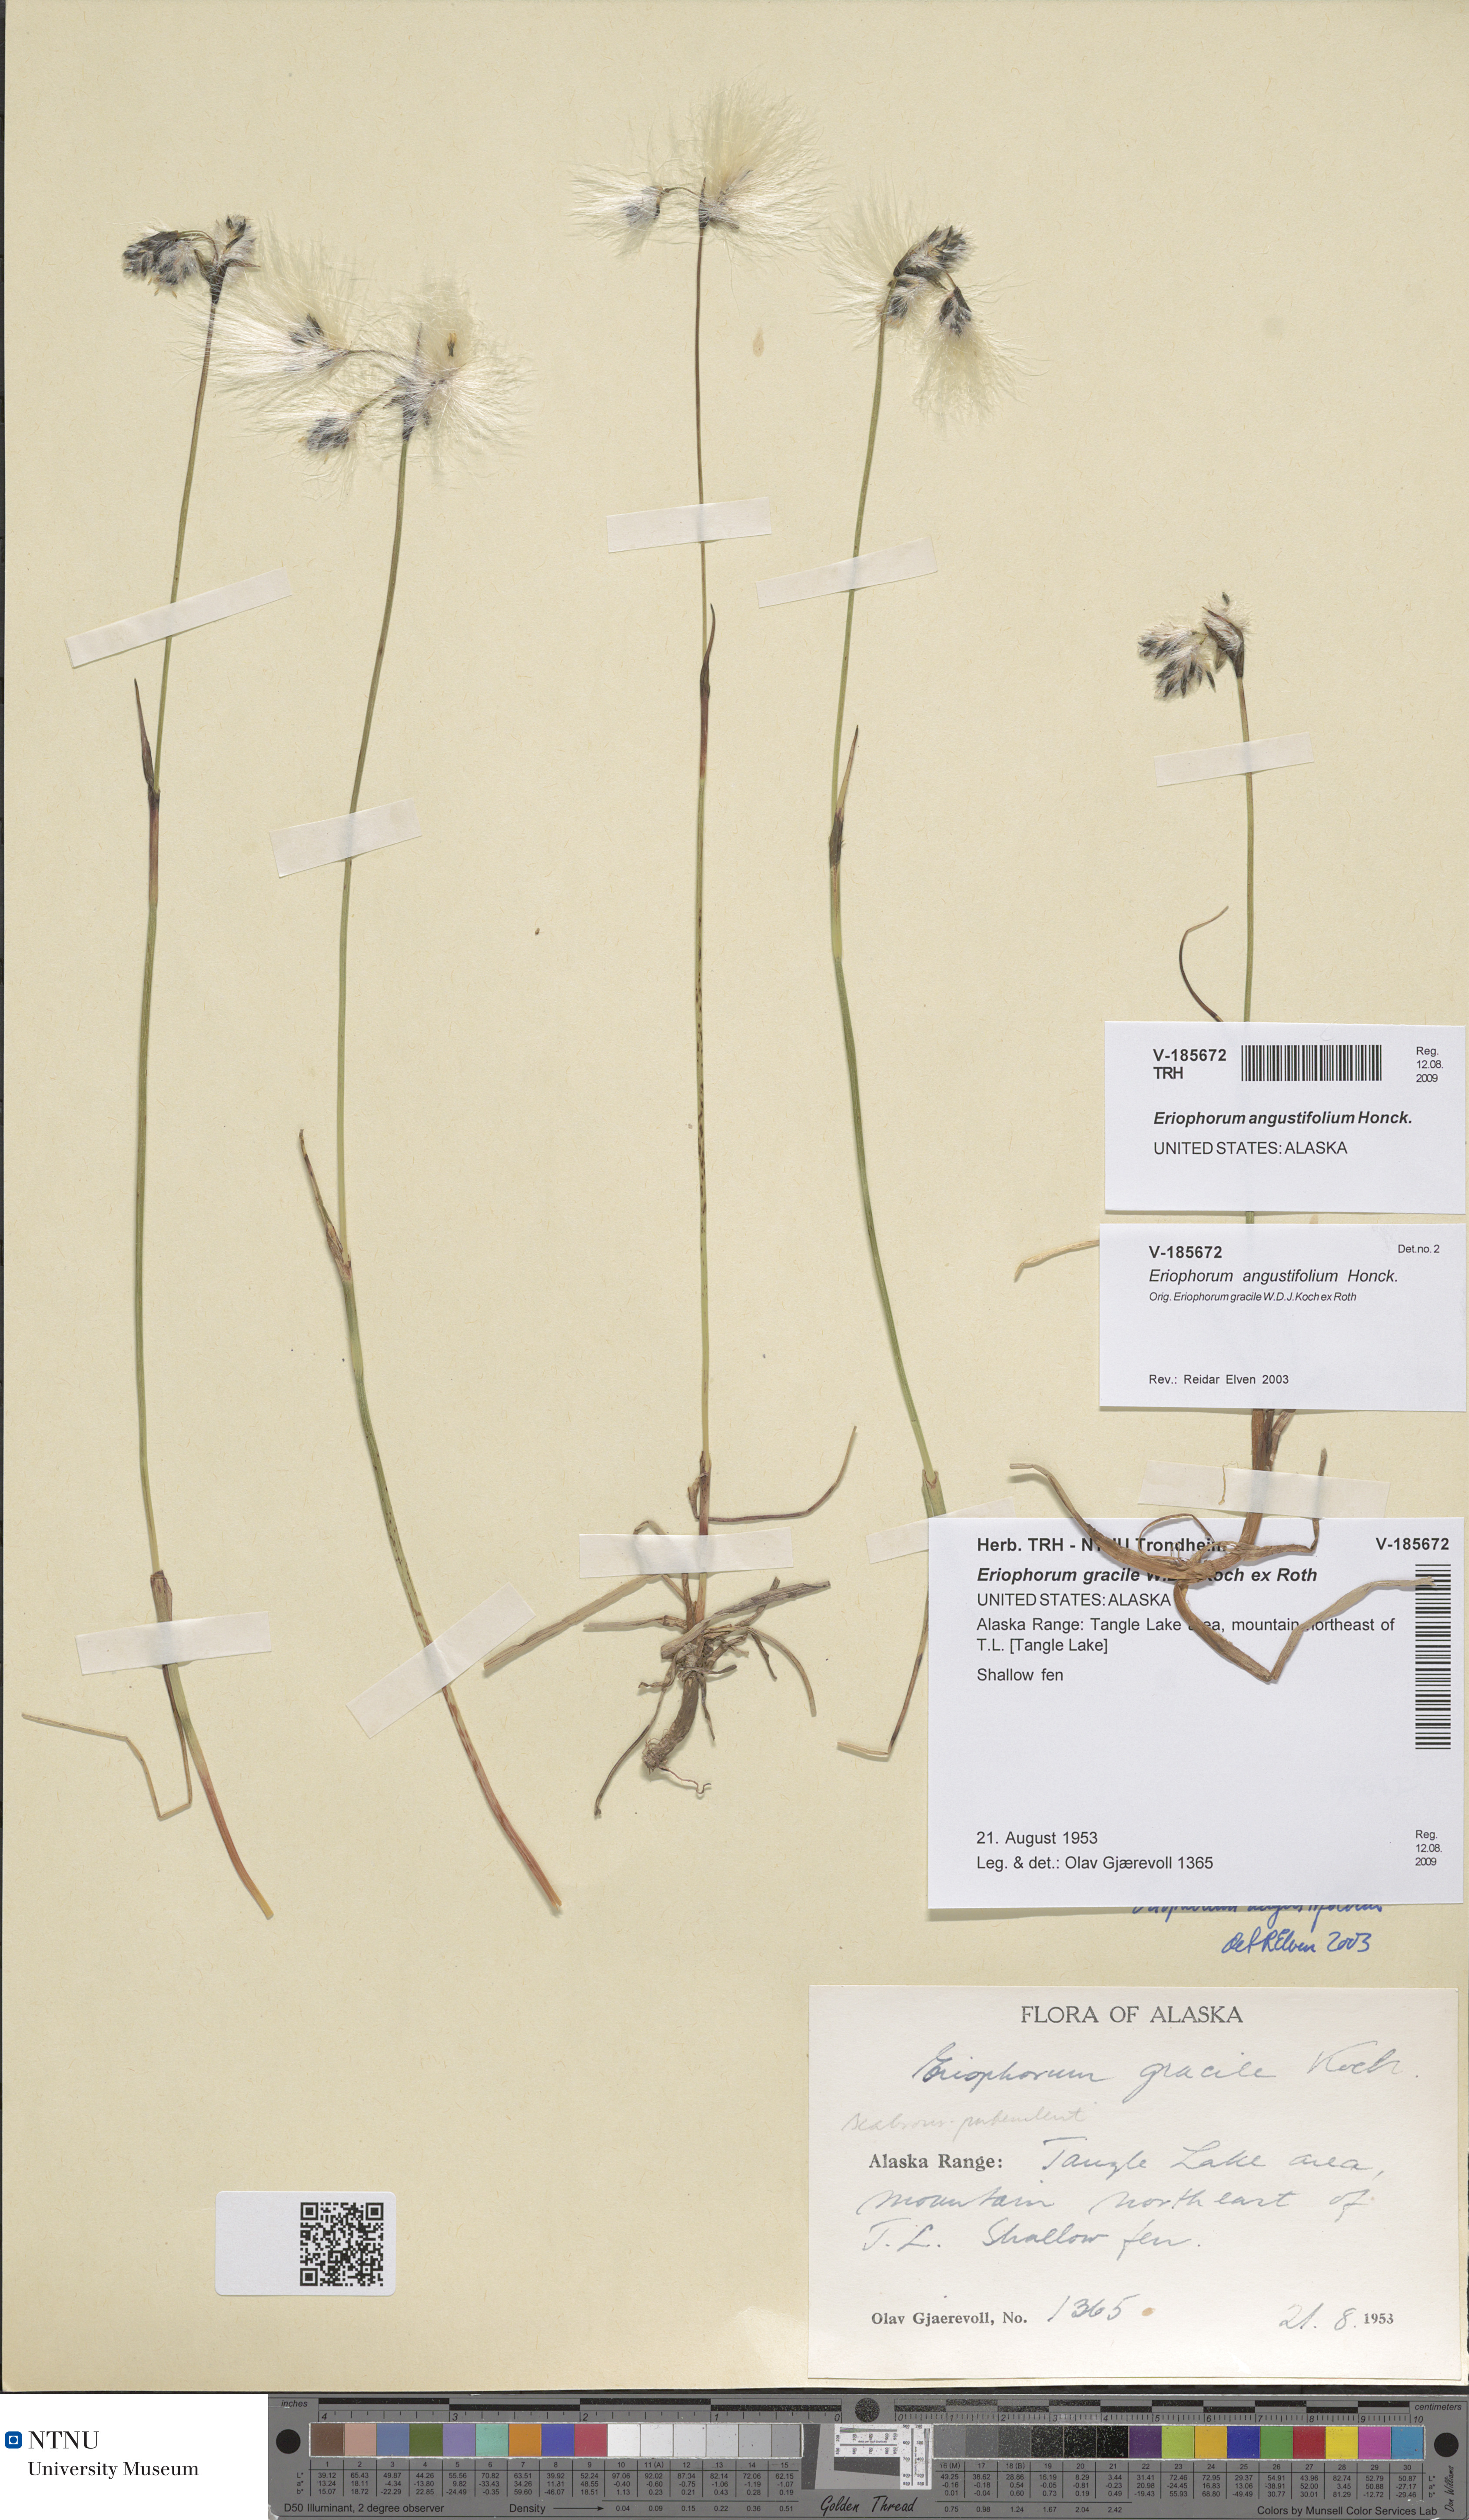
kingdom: Plantae
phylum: Tracheophyta
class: Liliopsida
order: Poales
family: Cyperaceae
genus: Eriophorum
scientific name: Eriophorum angustifolium
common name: Common cottongrass
